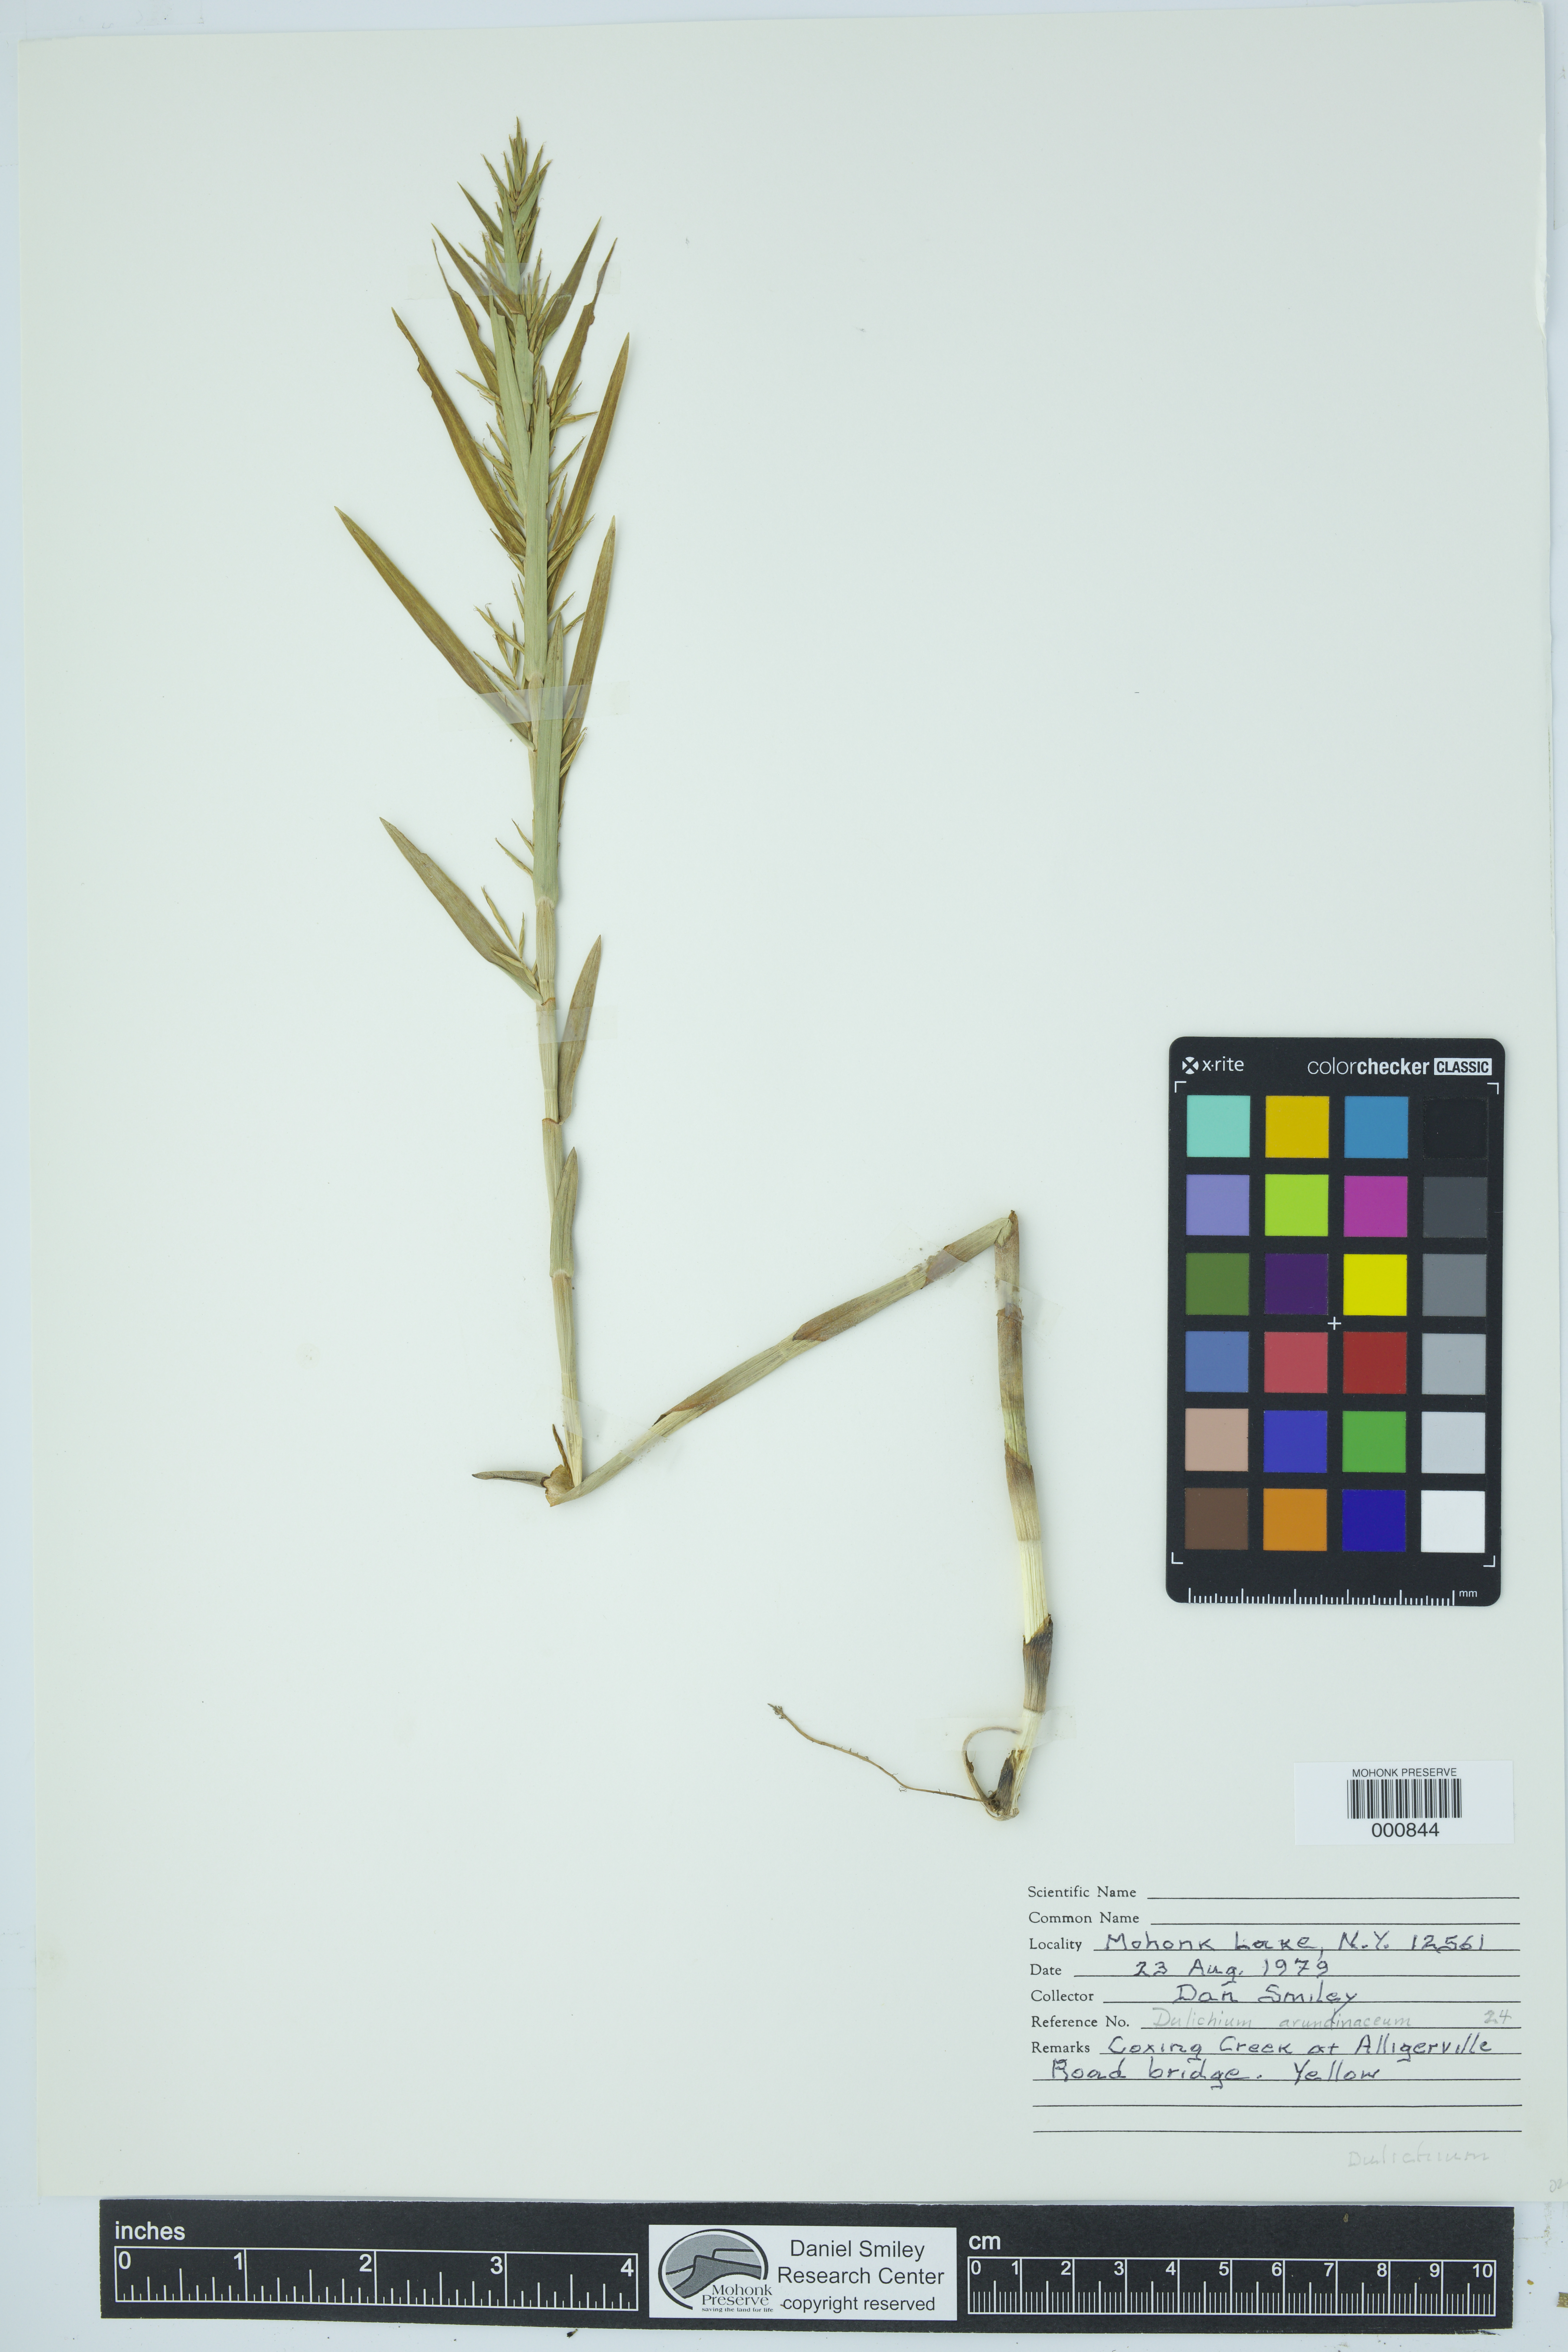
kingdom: Plantae
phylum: Tracheophyta
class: Liliopsida
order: Poales
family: Cyperaceae
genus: Dulichium
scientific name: Dulichium arundinaceum
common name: Three-way sedge
